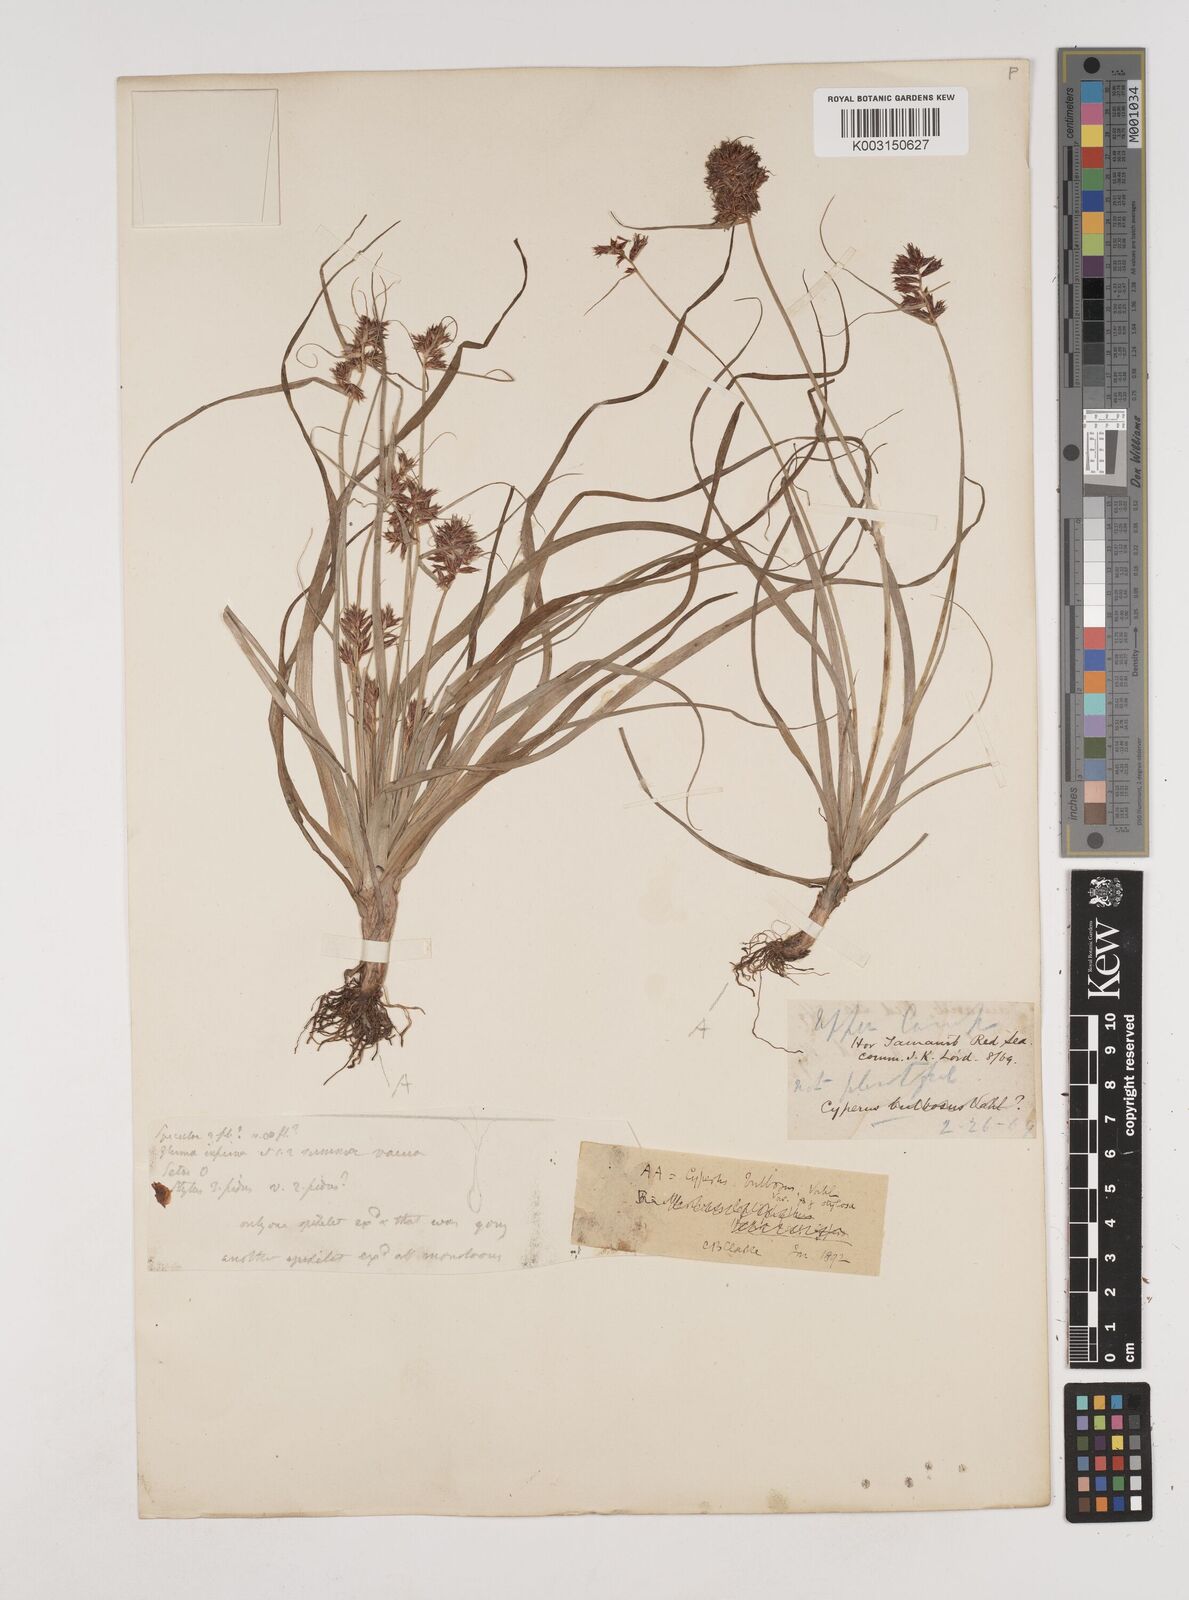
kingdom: Plantae
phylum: Tracheophyta
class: Liliopsida
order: Poales
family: Cyperaceae
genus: Cyperus
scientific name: Cyperus bulbosus
